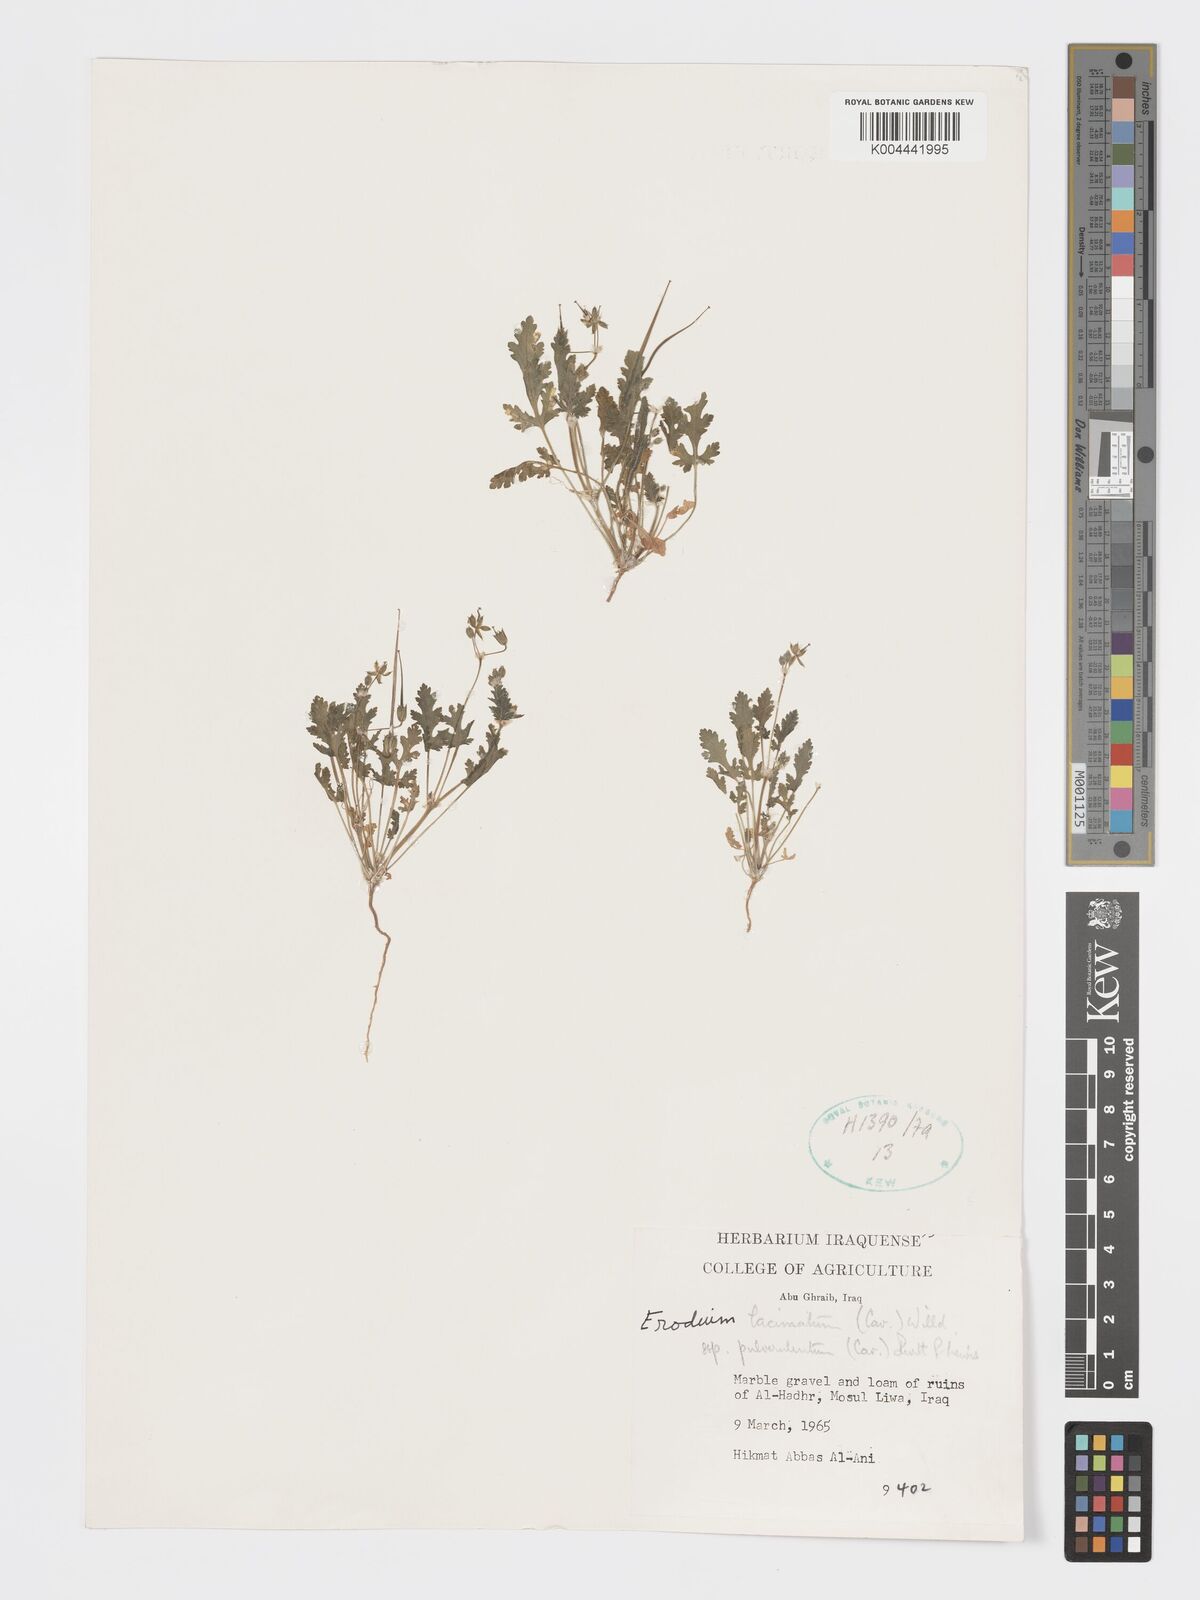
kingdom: Plantae
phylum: Tracheophyta
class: Magnoliopsida
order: Geraniales
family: Geraniaceae
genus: Erodium
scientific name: Erodium laciniatum
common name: Cutleaf stork's bill
